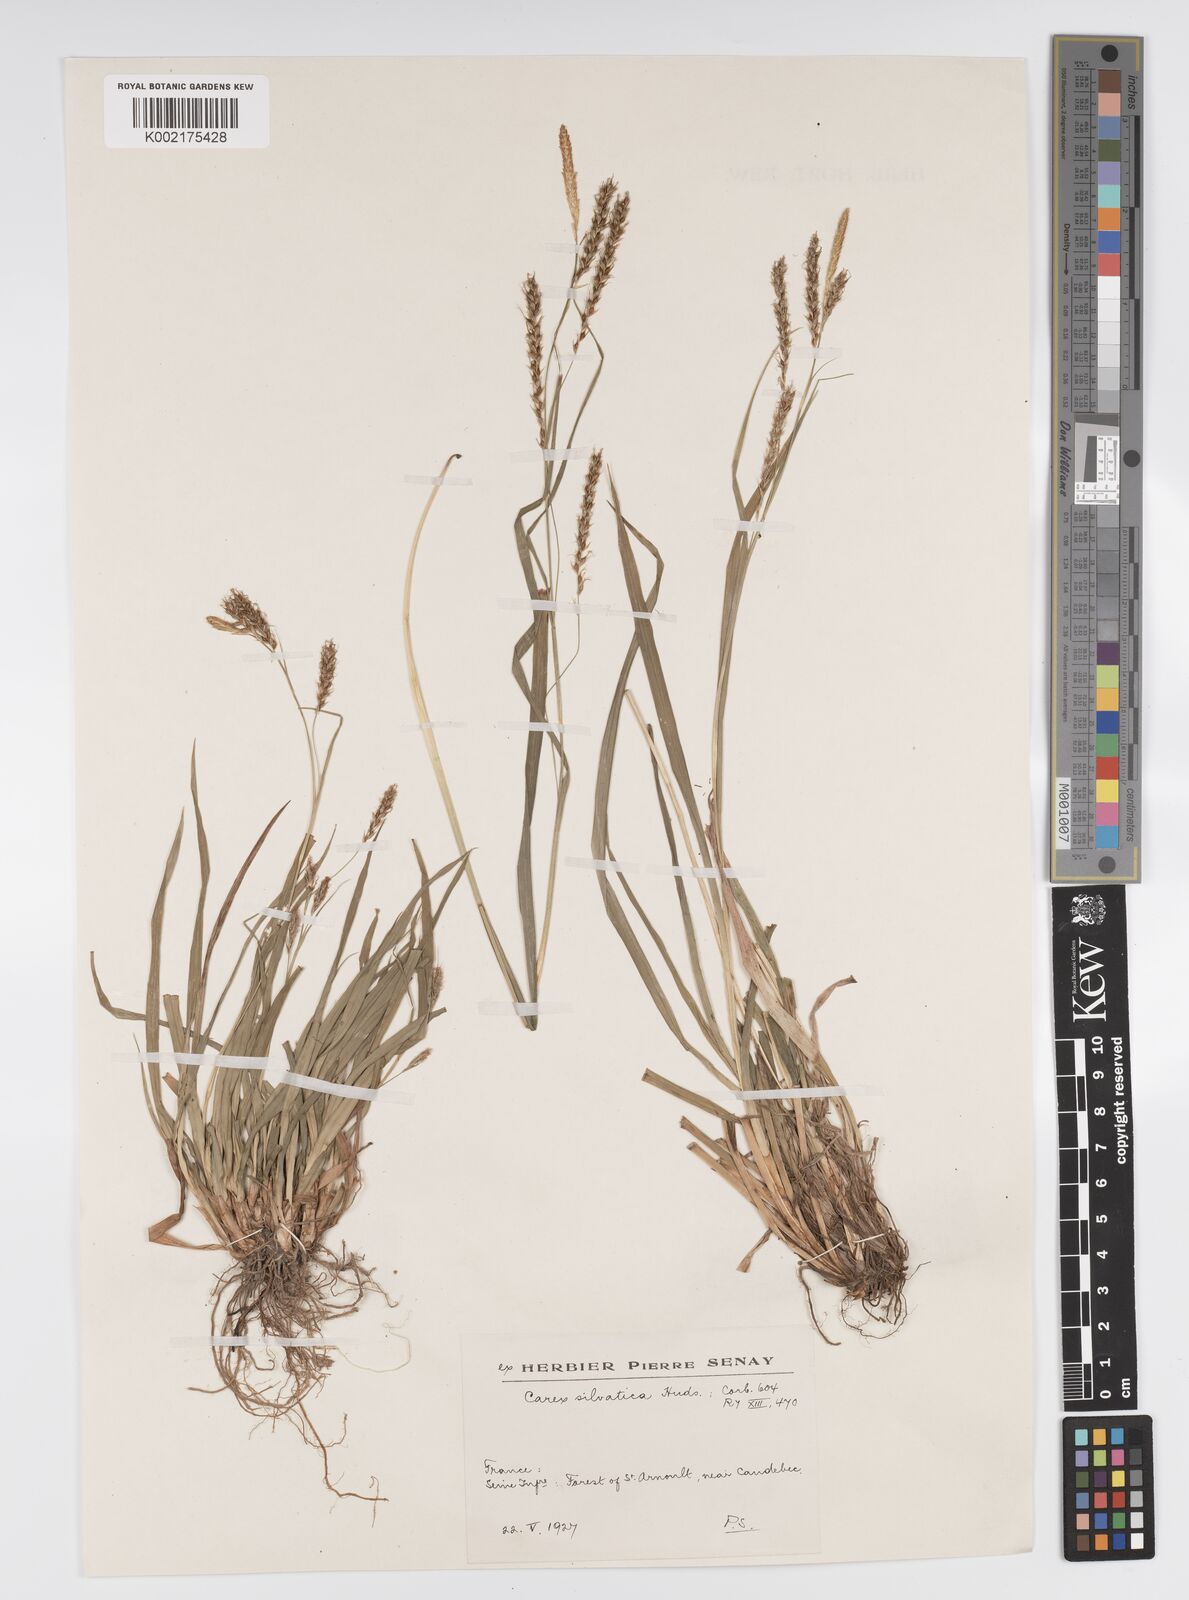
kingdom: Plantae
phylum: Tracheophyta
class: Liliopsida
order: Poales
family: Cyperaceae
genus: Carex
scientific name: Carex sylvatica
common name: Wood-sedge
